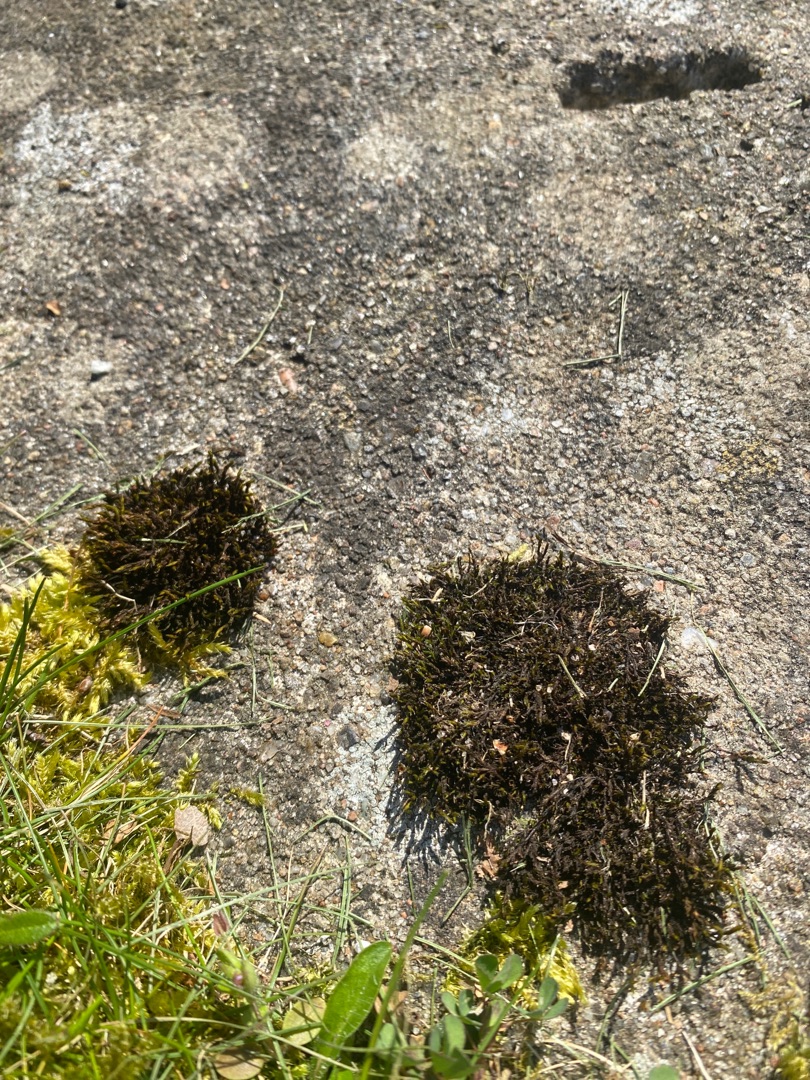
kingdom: Plantae
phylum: Bryophyta
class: Bryopsida
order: Grimmiales
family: Grimmiaceae
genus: Schistidium
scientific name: Schistidium apocarpum
